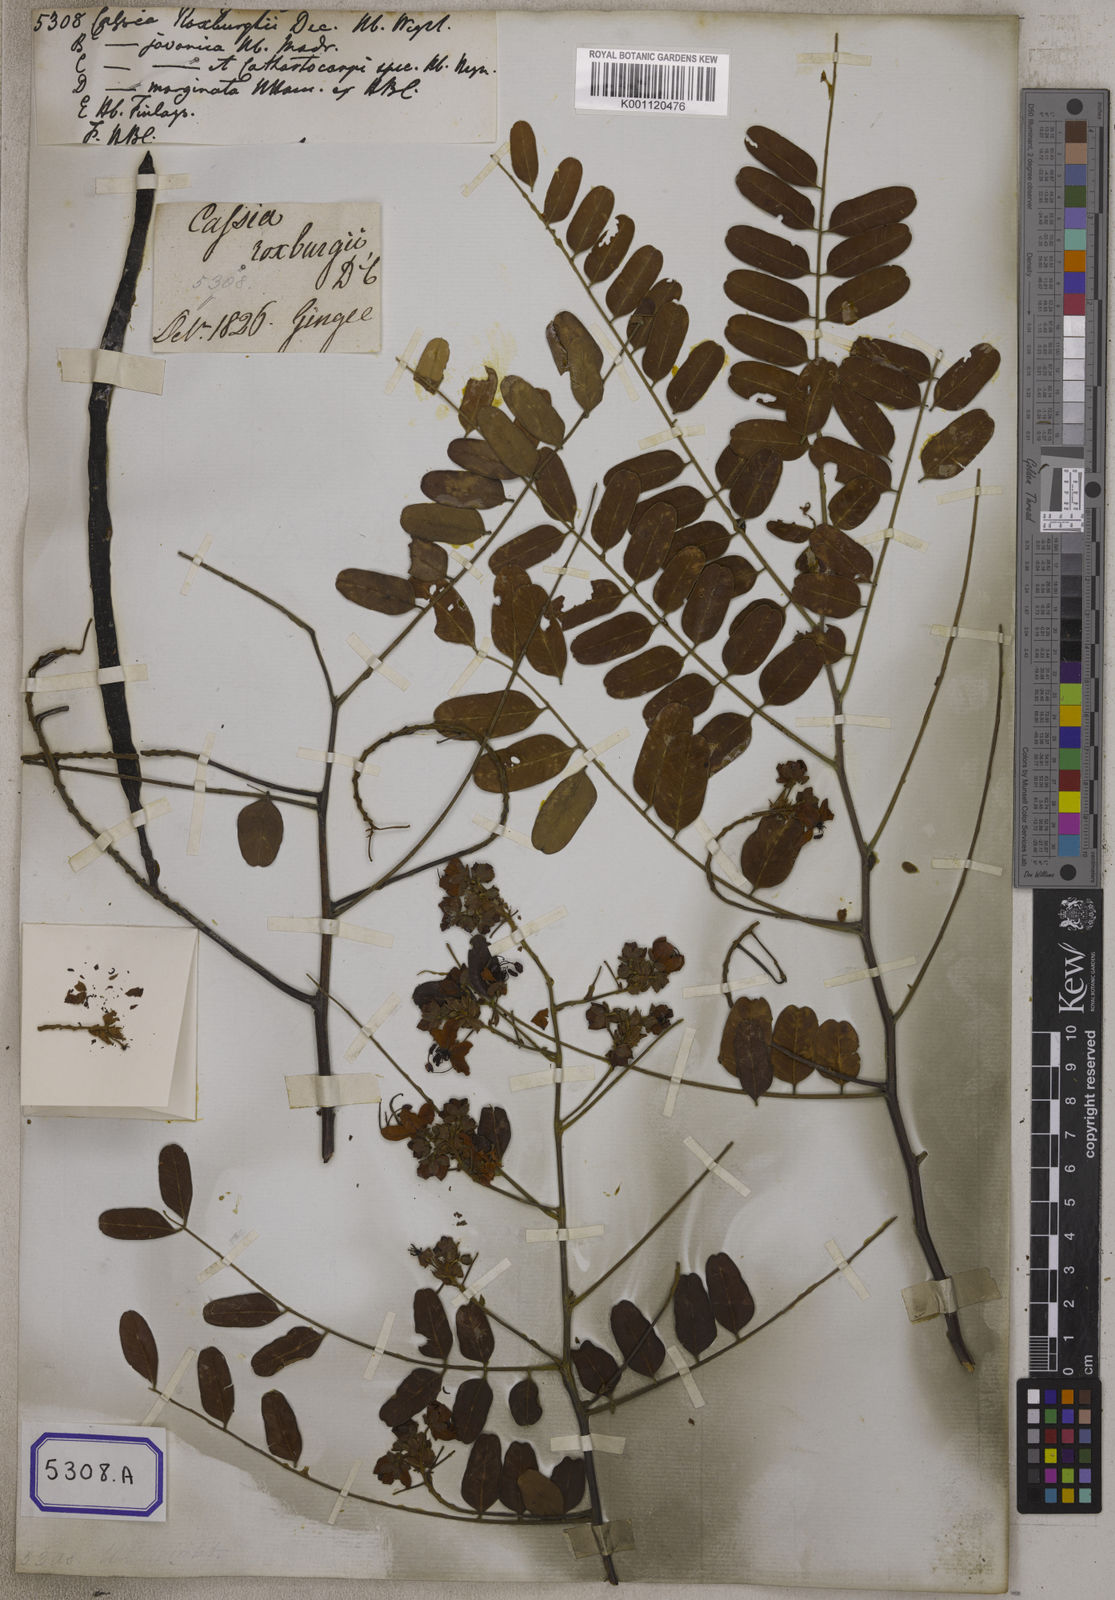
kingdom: Plantae
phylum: Tracheophyta
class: Magnoliopsida
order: Fabales
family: Fabaceae
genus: Cassia
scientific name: Cassia roxburghii
